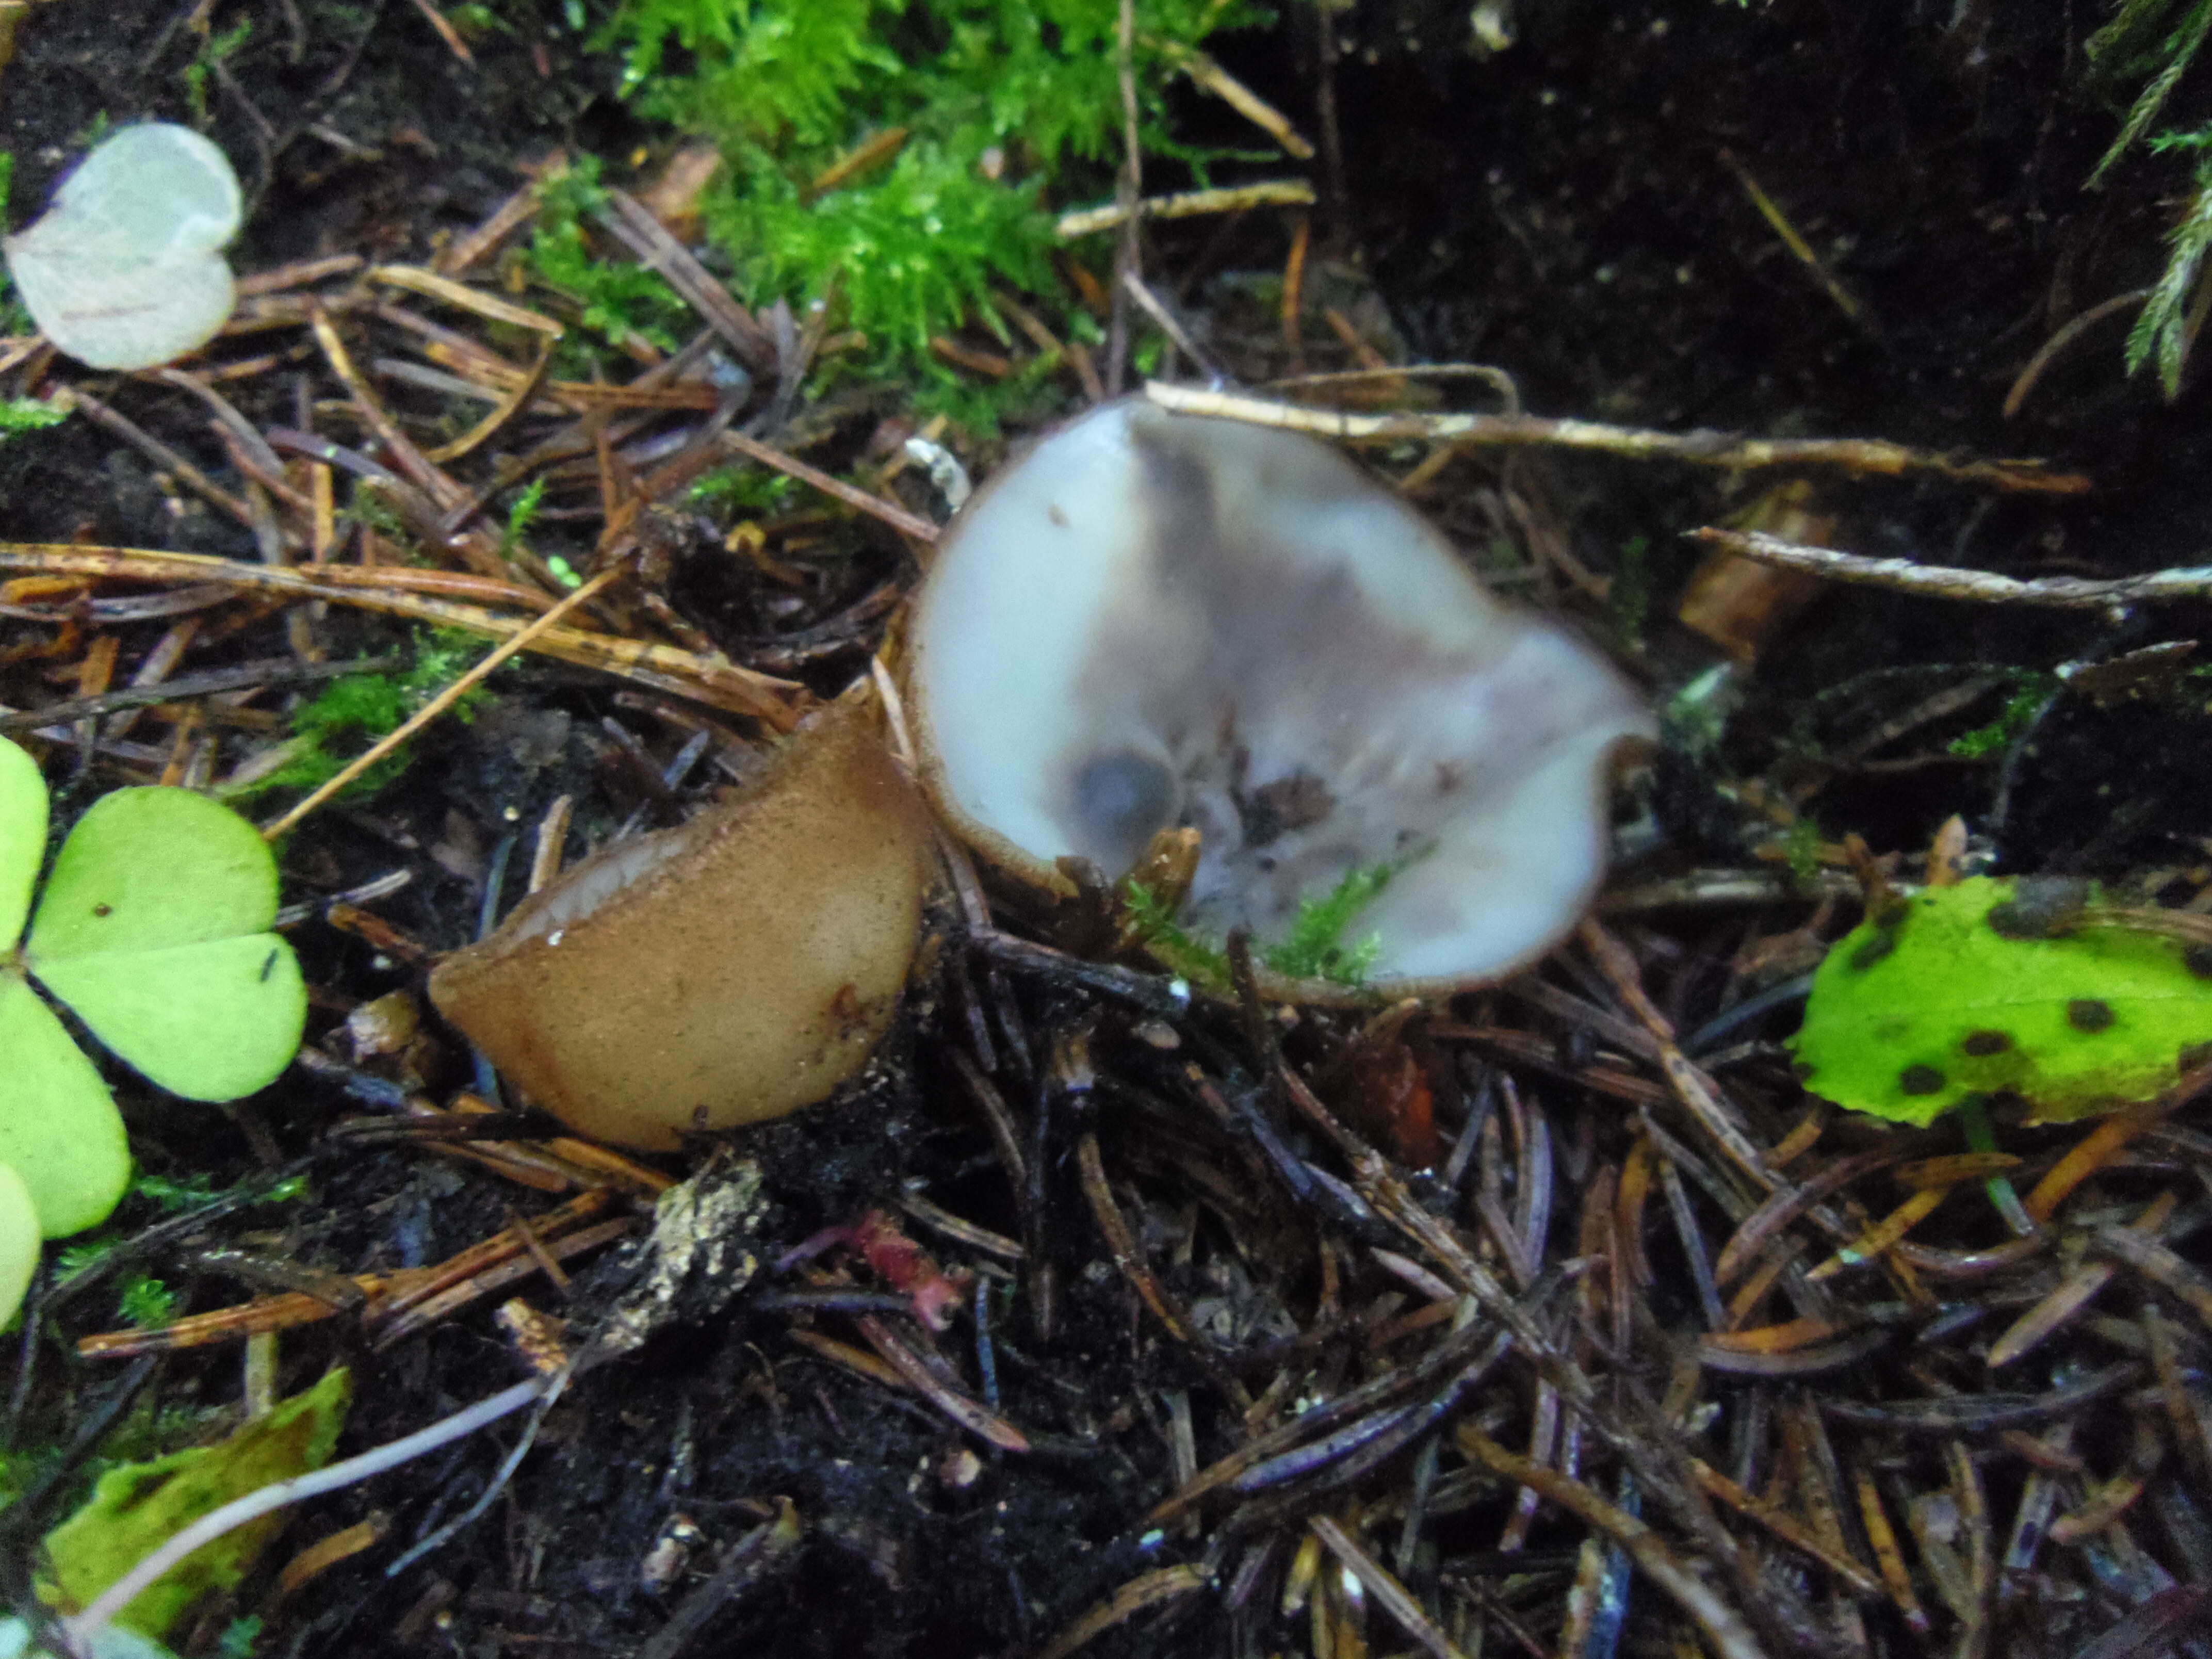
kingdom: Fungi
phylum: Ascomycota
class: Pezizomycetes
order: Pezizales
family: Pyronemataceae
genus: Humaria
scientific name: Humaria hemisphaerica
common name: Glazed cup
